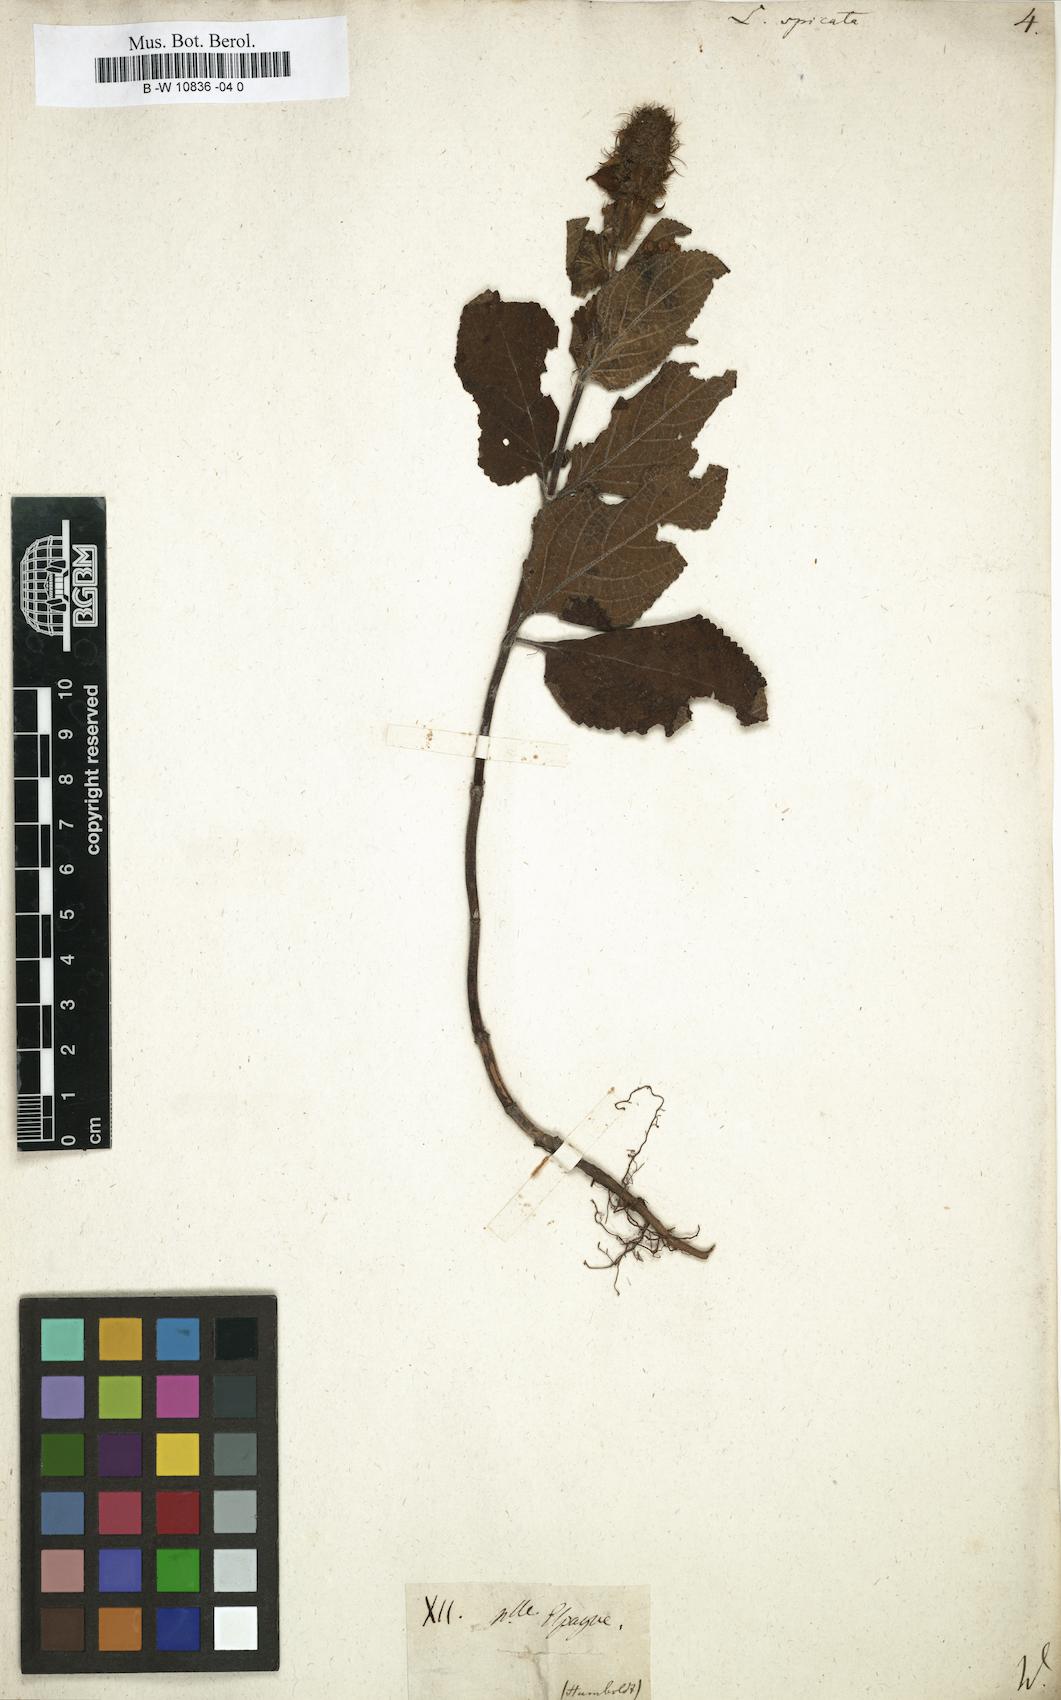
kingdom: Plantae
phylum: Tracheophyta
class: Magnoliopsida
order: Lamiales
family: Lamiaceae
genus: Lepechinia
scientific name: Lepechinia caulescens
